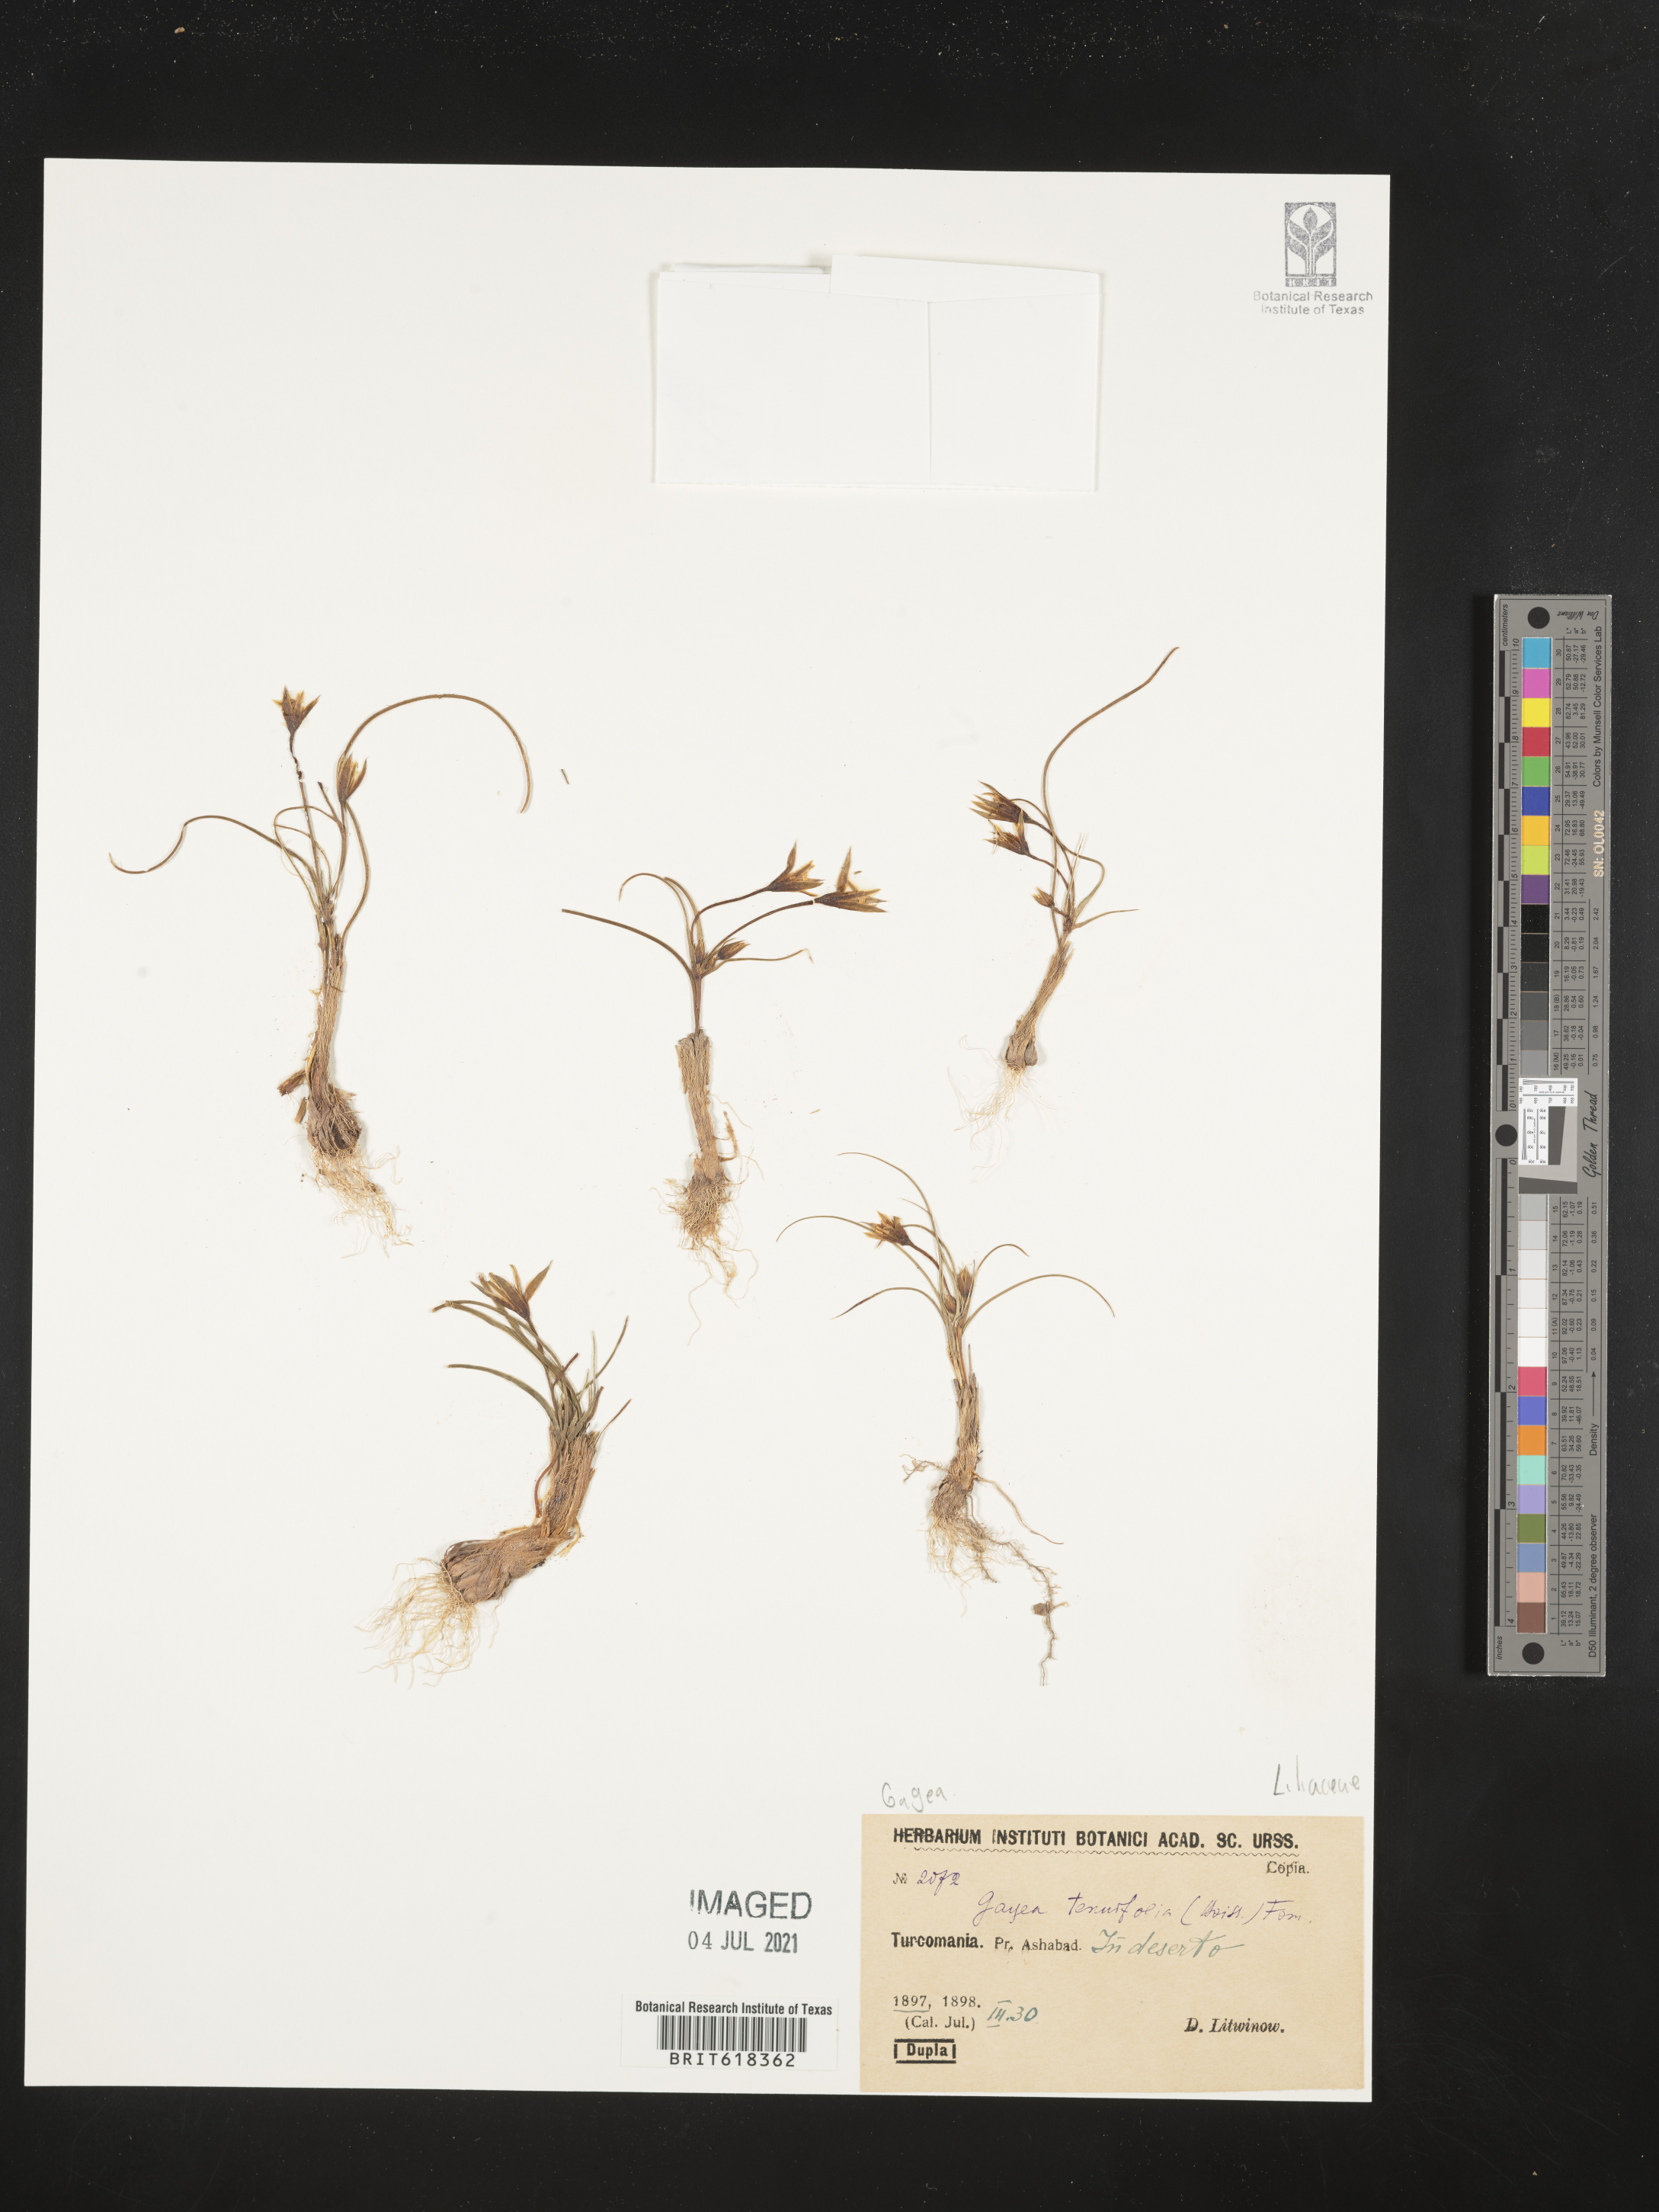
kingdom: Plantae
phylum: Tracheophyta
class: Liliopsida
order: Liliales
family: Liliaceae
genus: Gagea
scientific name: Gagea reticulata
